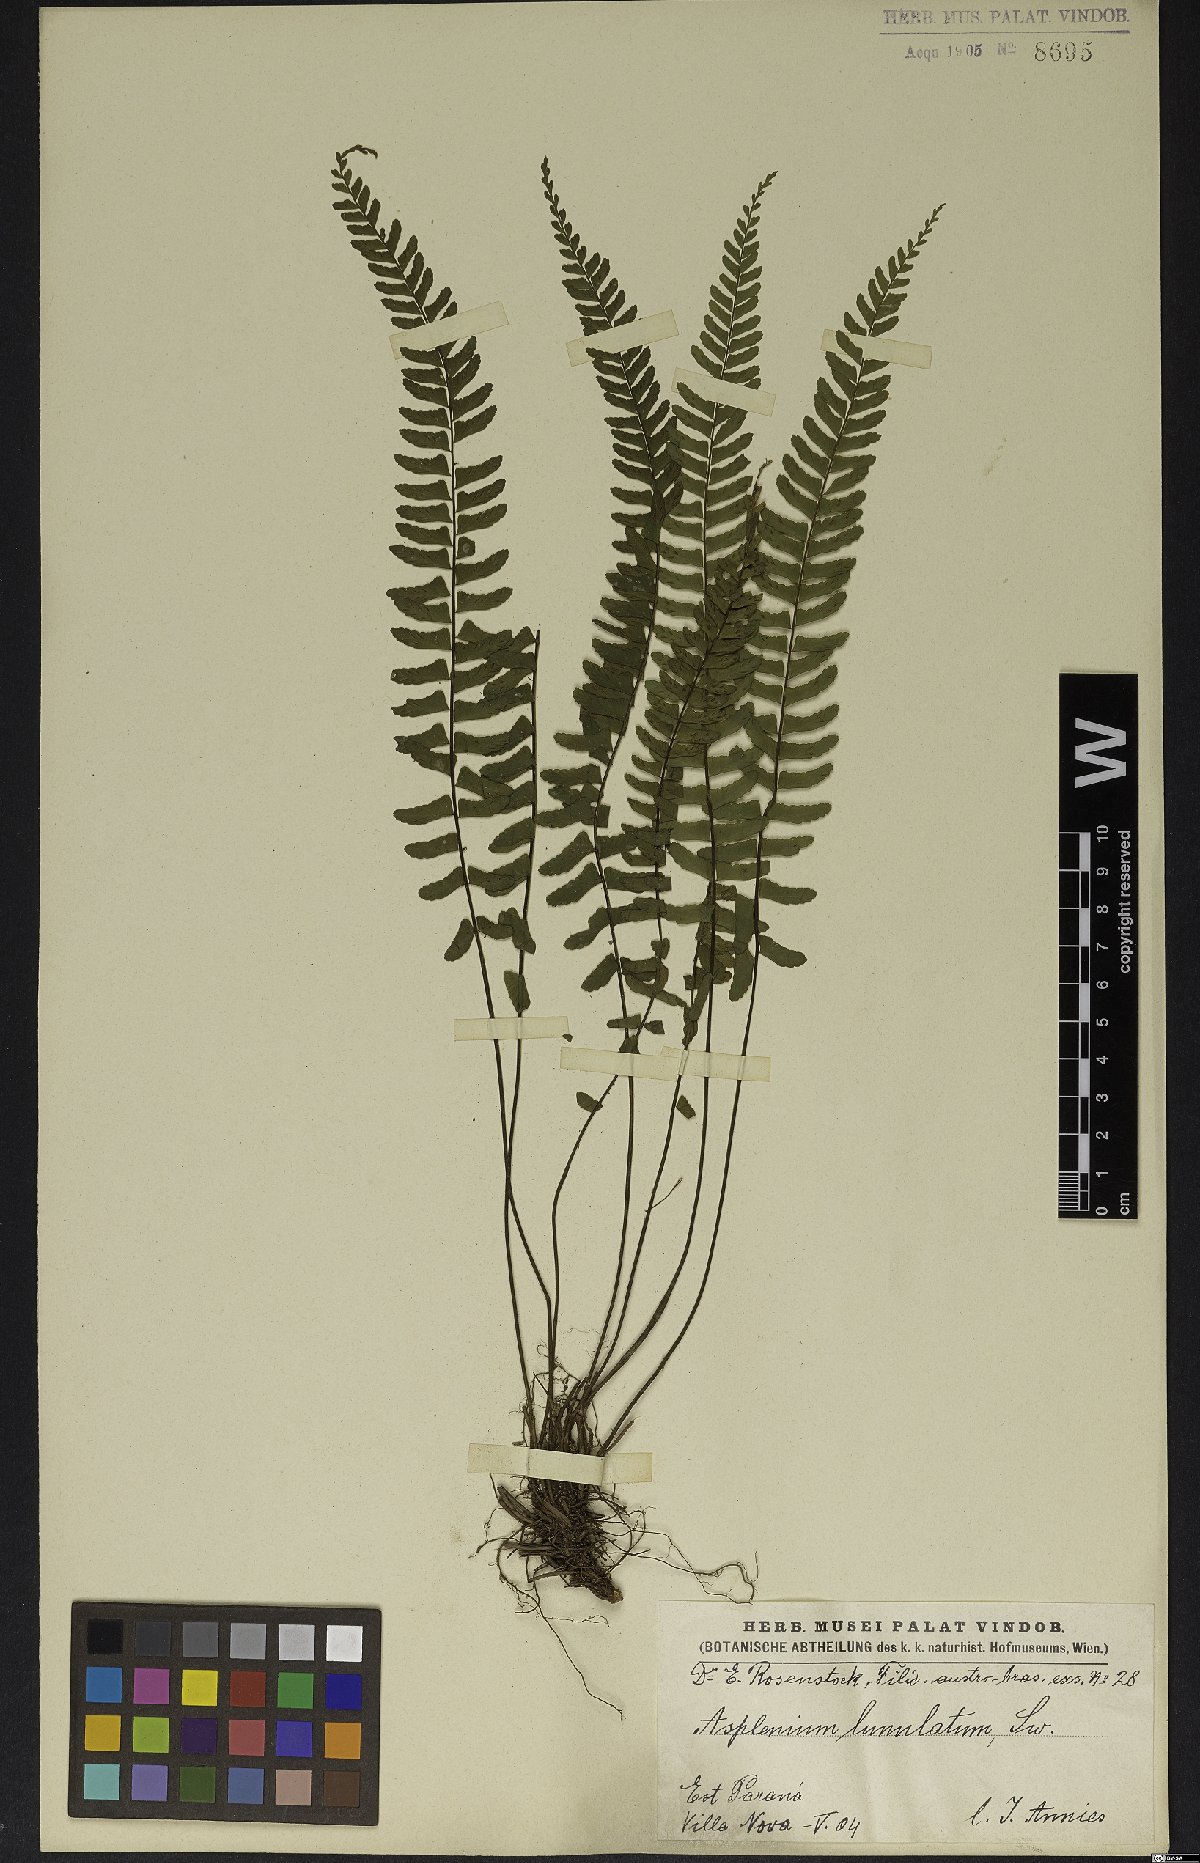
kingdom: Plantae
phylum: Tracheophyta
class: Polypodiopsida
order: Polypodiales
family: Aspleniaceae
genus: Asplenium
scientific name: Asplenium lunulatum
